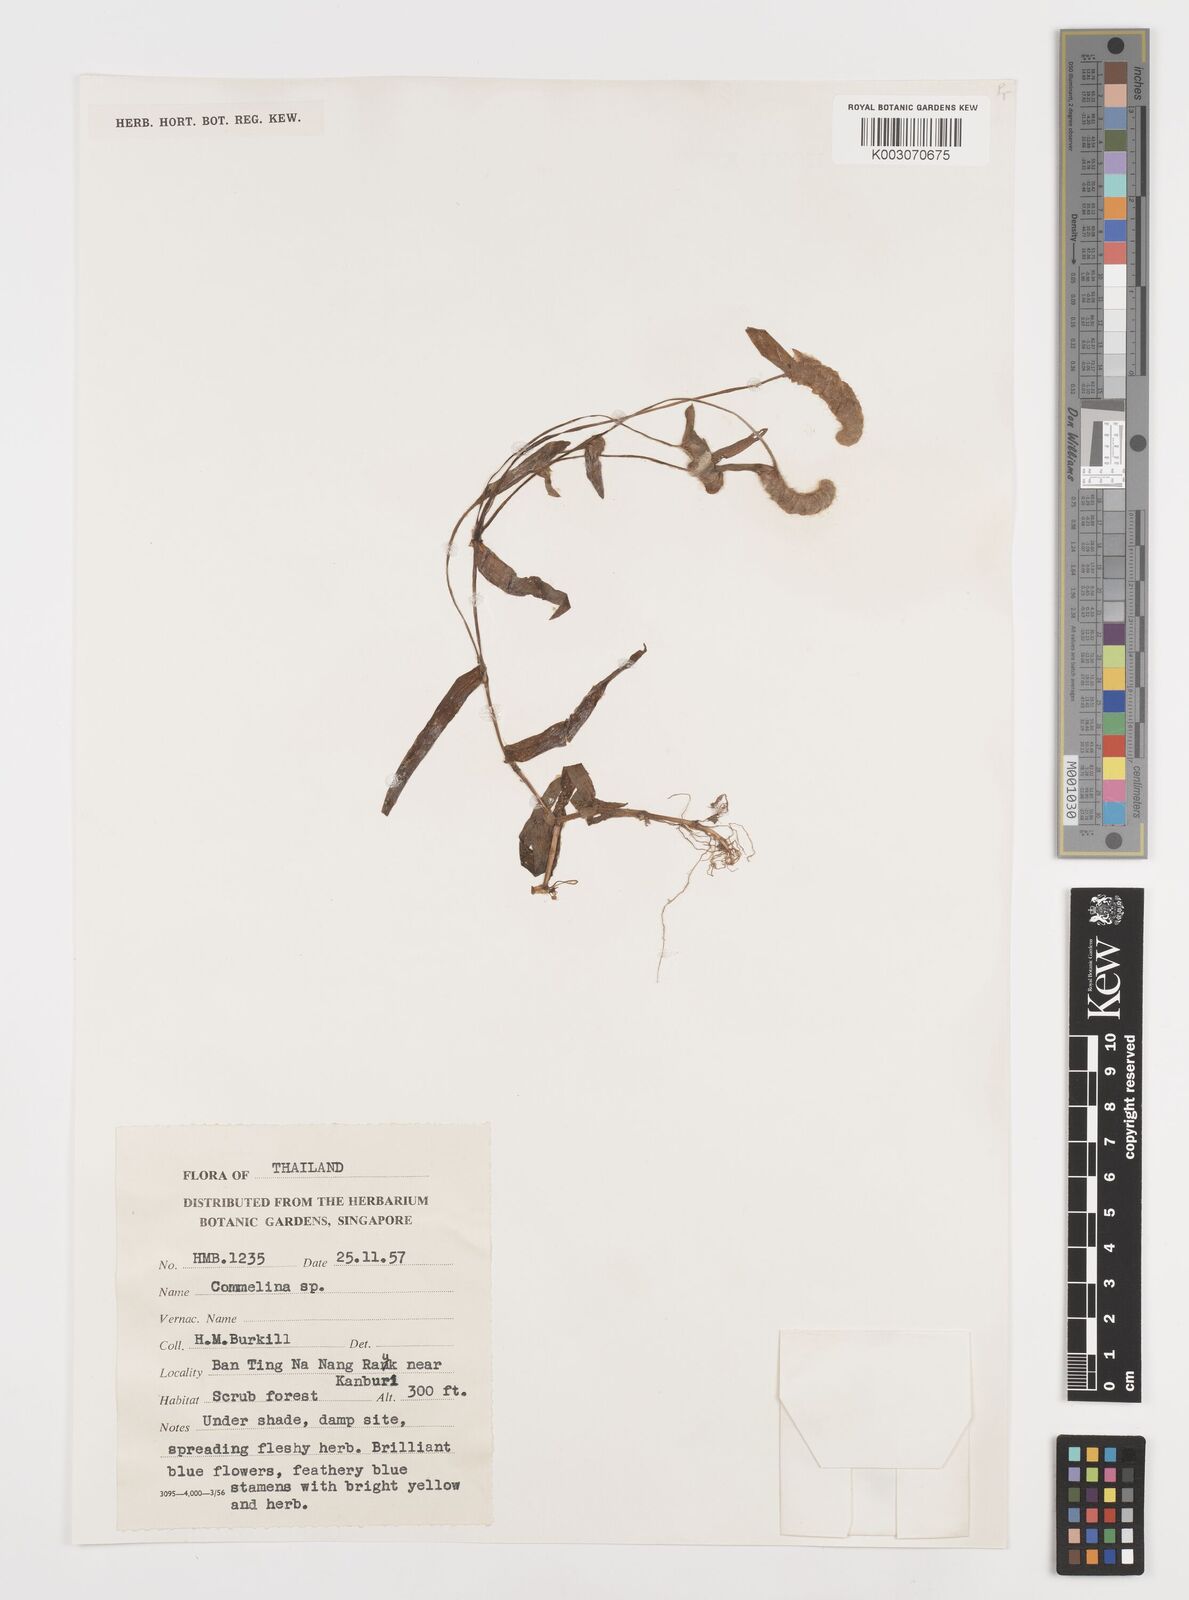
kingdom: Plantae
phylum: Tracheophyta
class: Liliopsida
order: Commelinales
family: Commelinaceae
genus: Commelina
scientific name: Commelina
